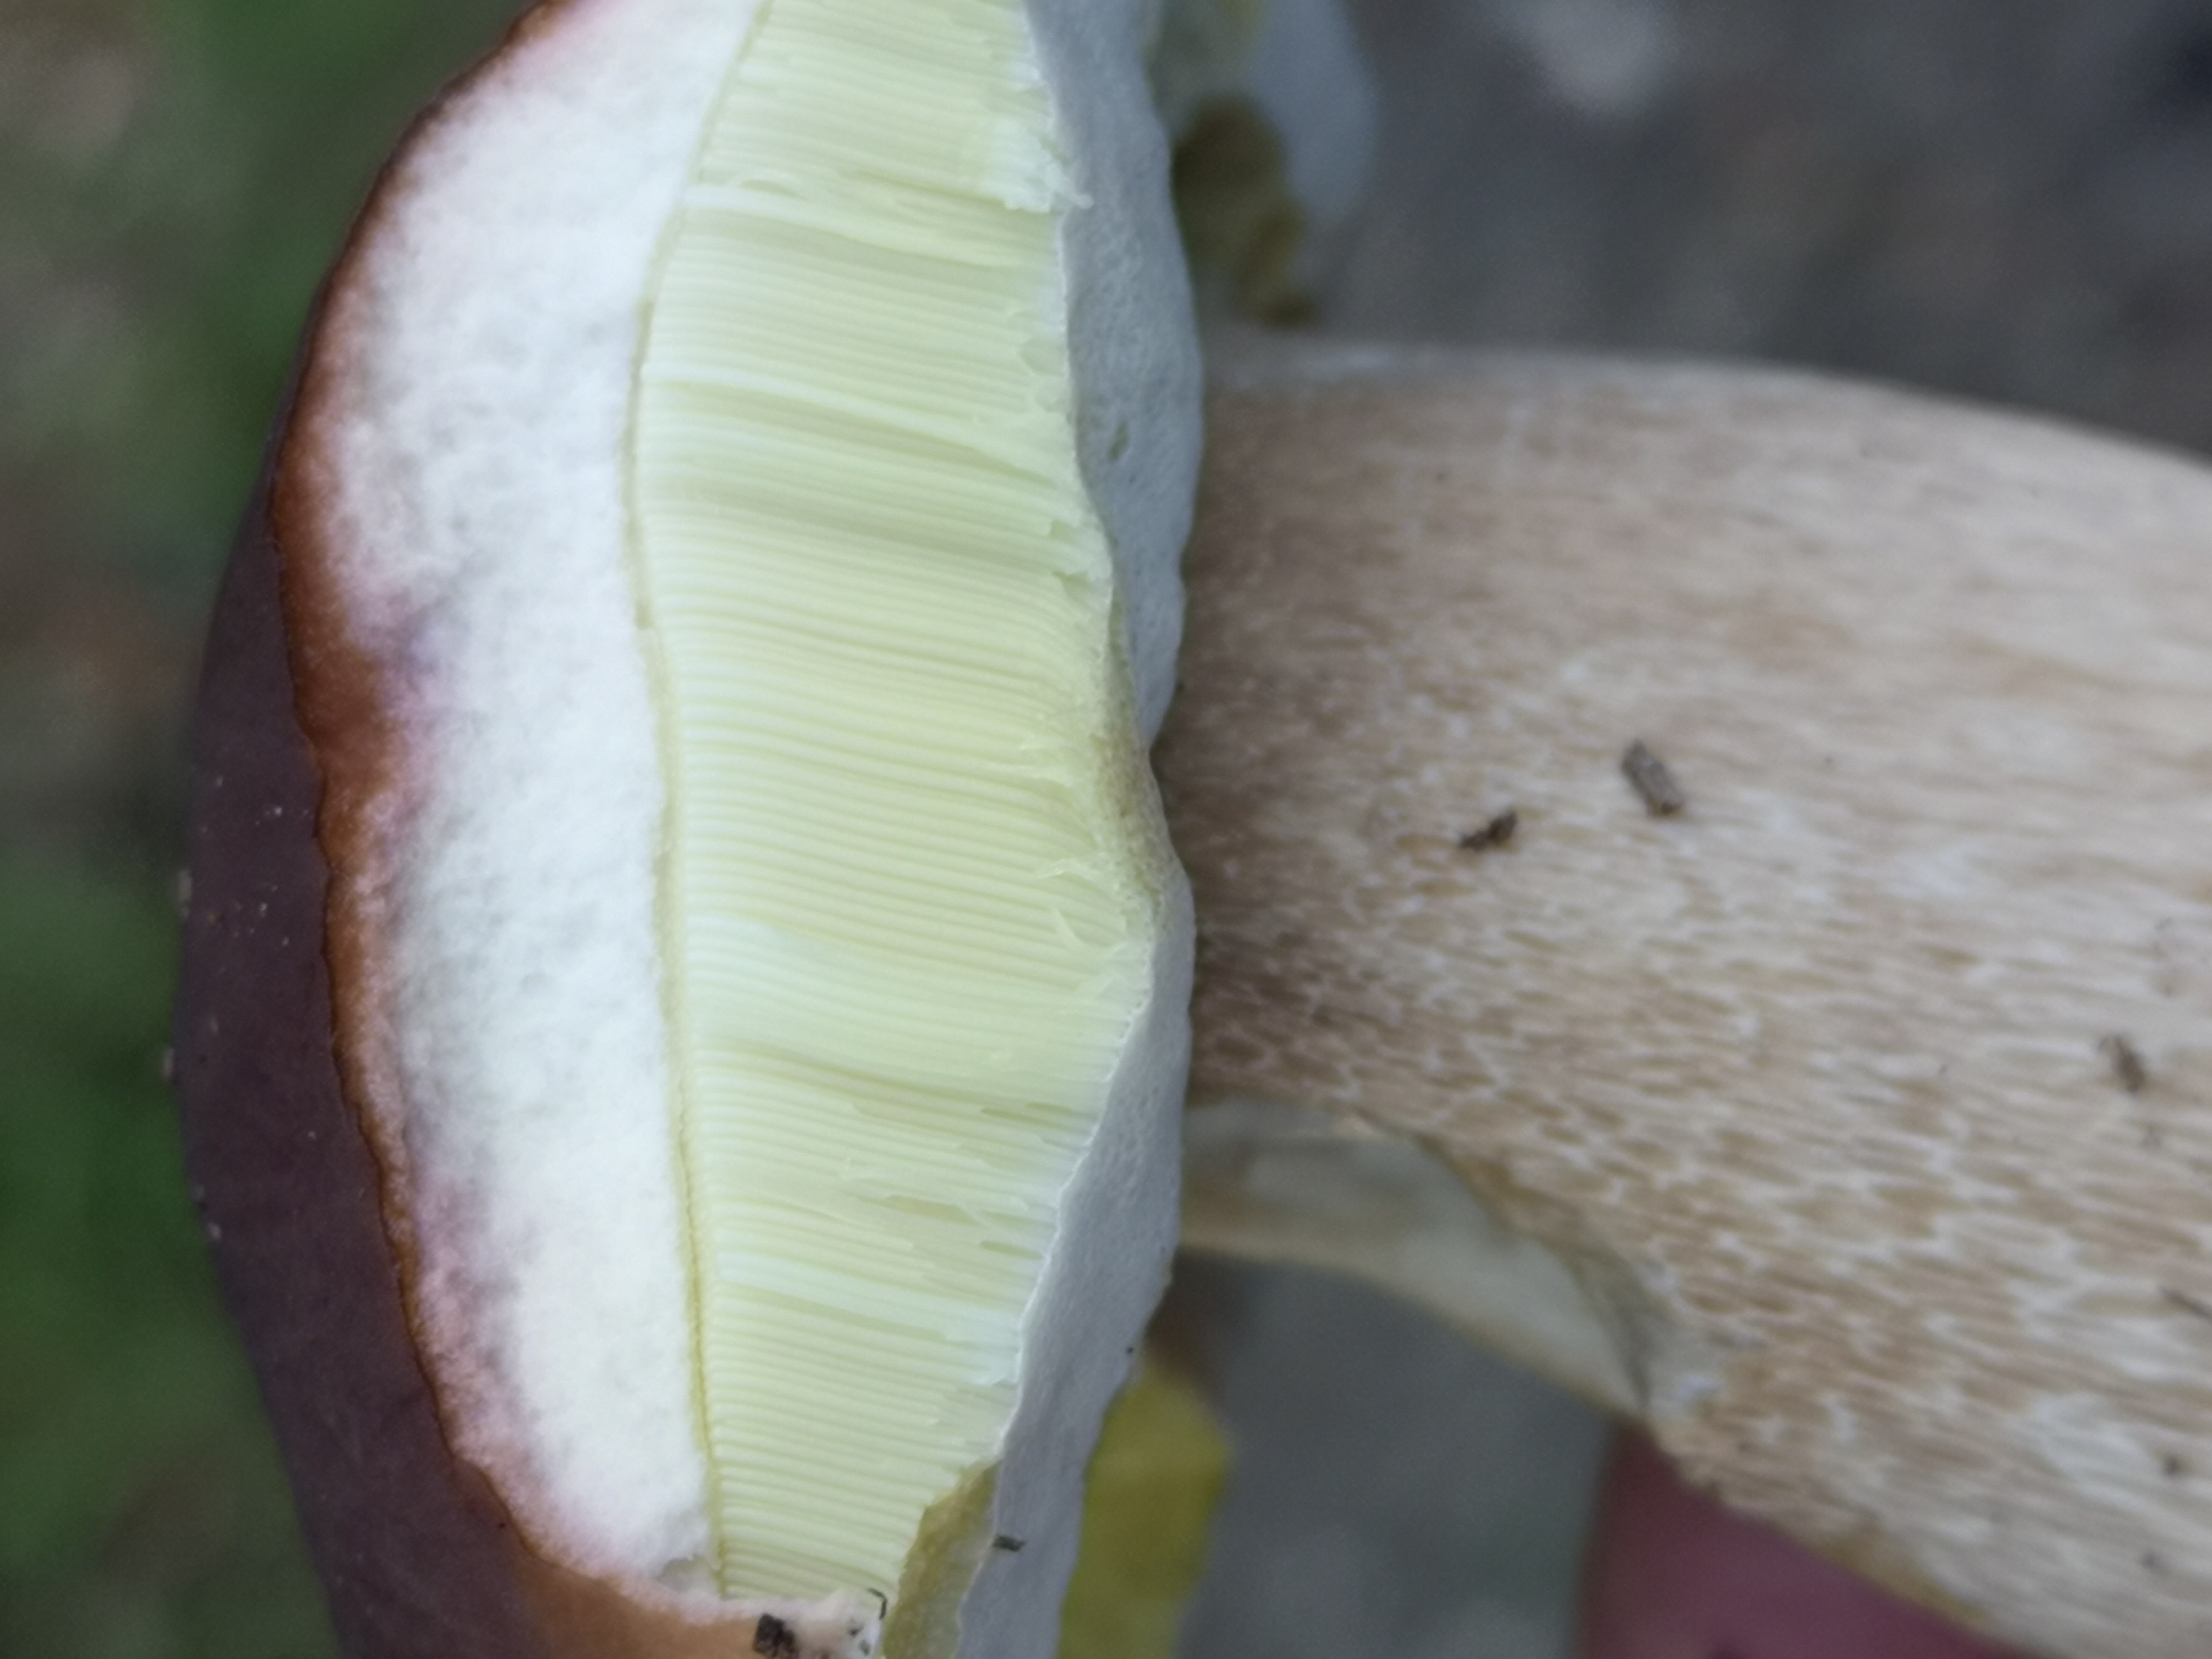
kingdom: Fungi
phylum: Basidiomycota
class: Agaricomycetes
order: Boletales
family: Boletaceae
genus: Boletus
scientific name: Boletus edulis
